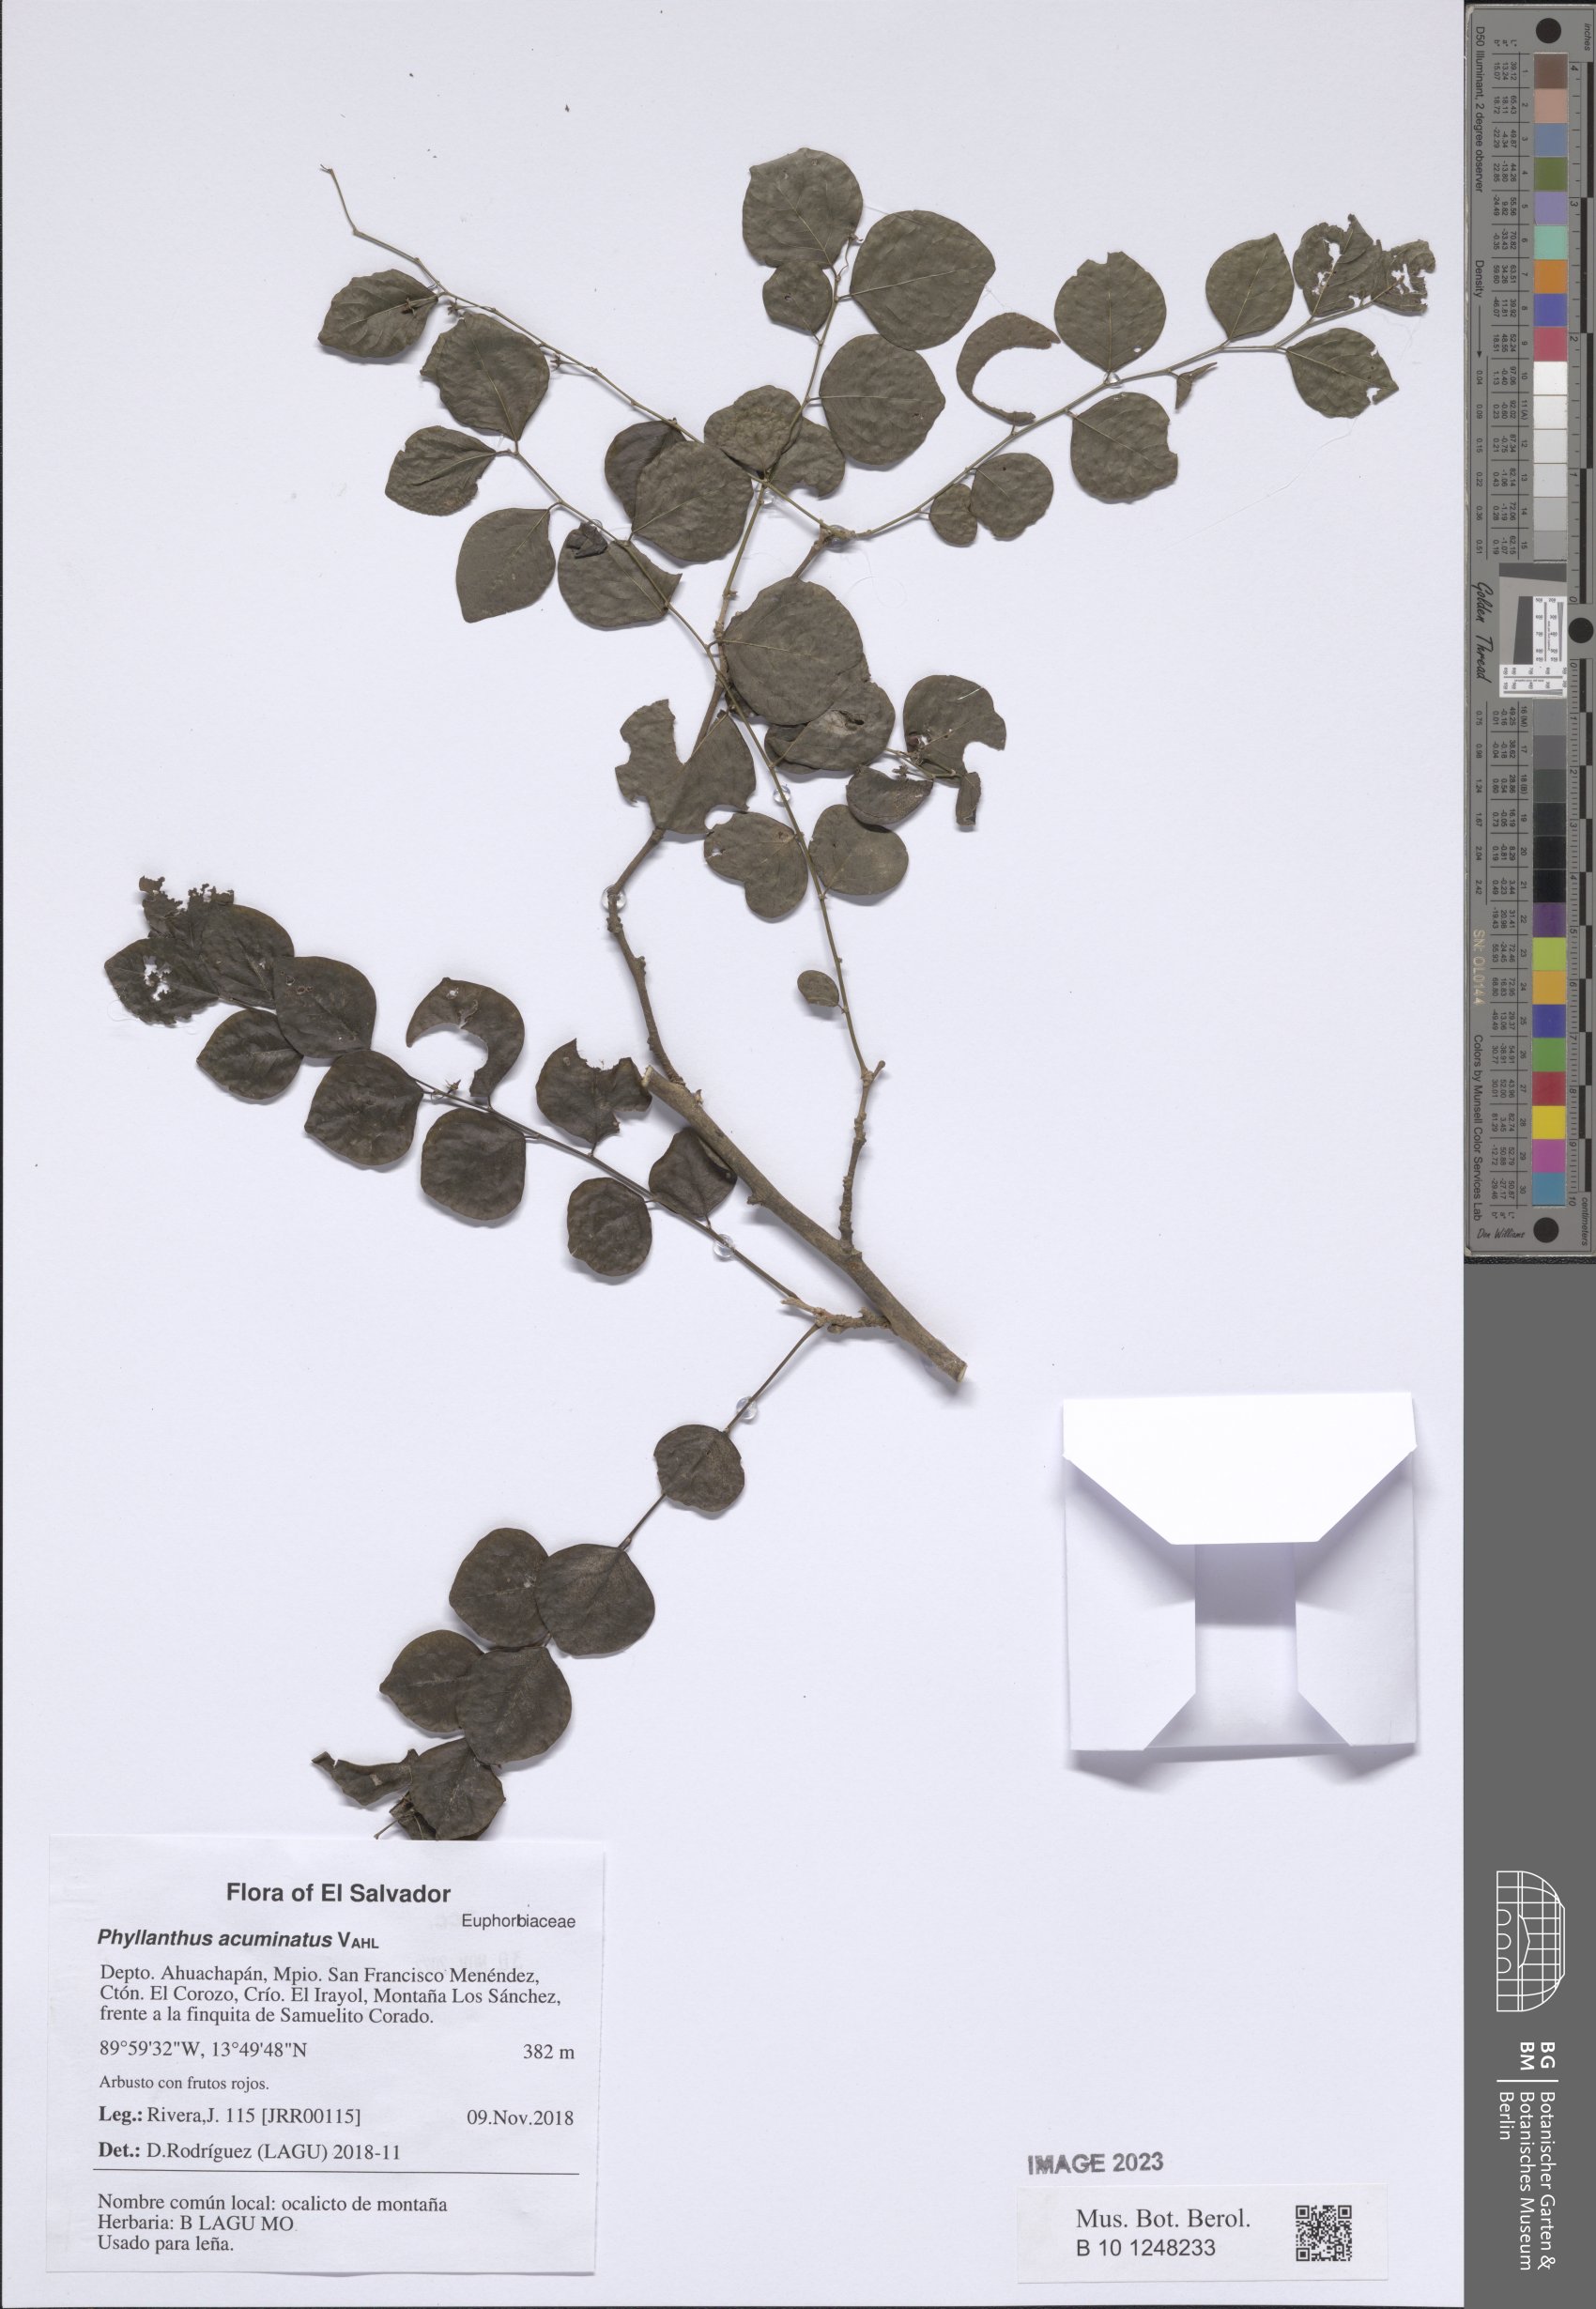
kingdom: Plantae
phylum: Tracheophyta
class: Magnoliopsida
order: Malpighiales
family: Phyllanthaceae
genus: Phyllanthus
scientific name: Phyllanthus mocinianus
